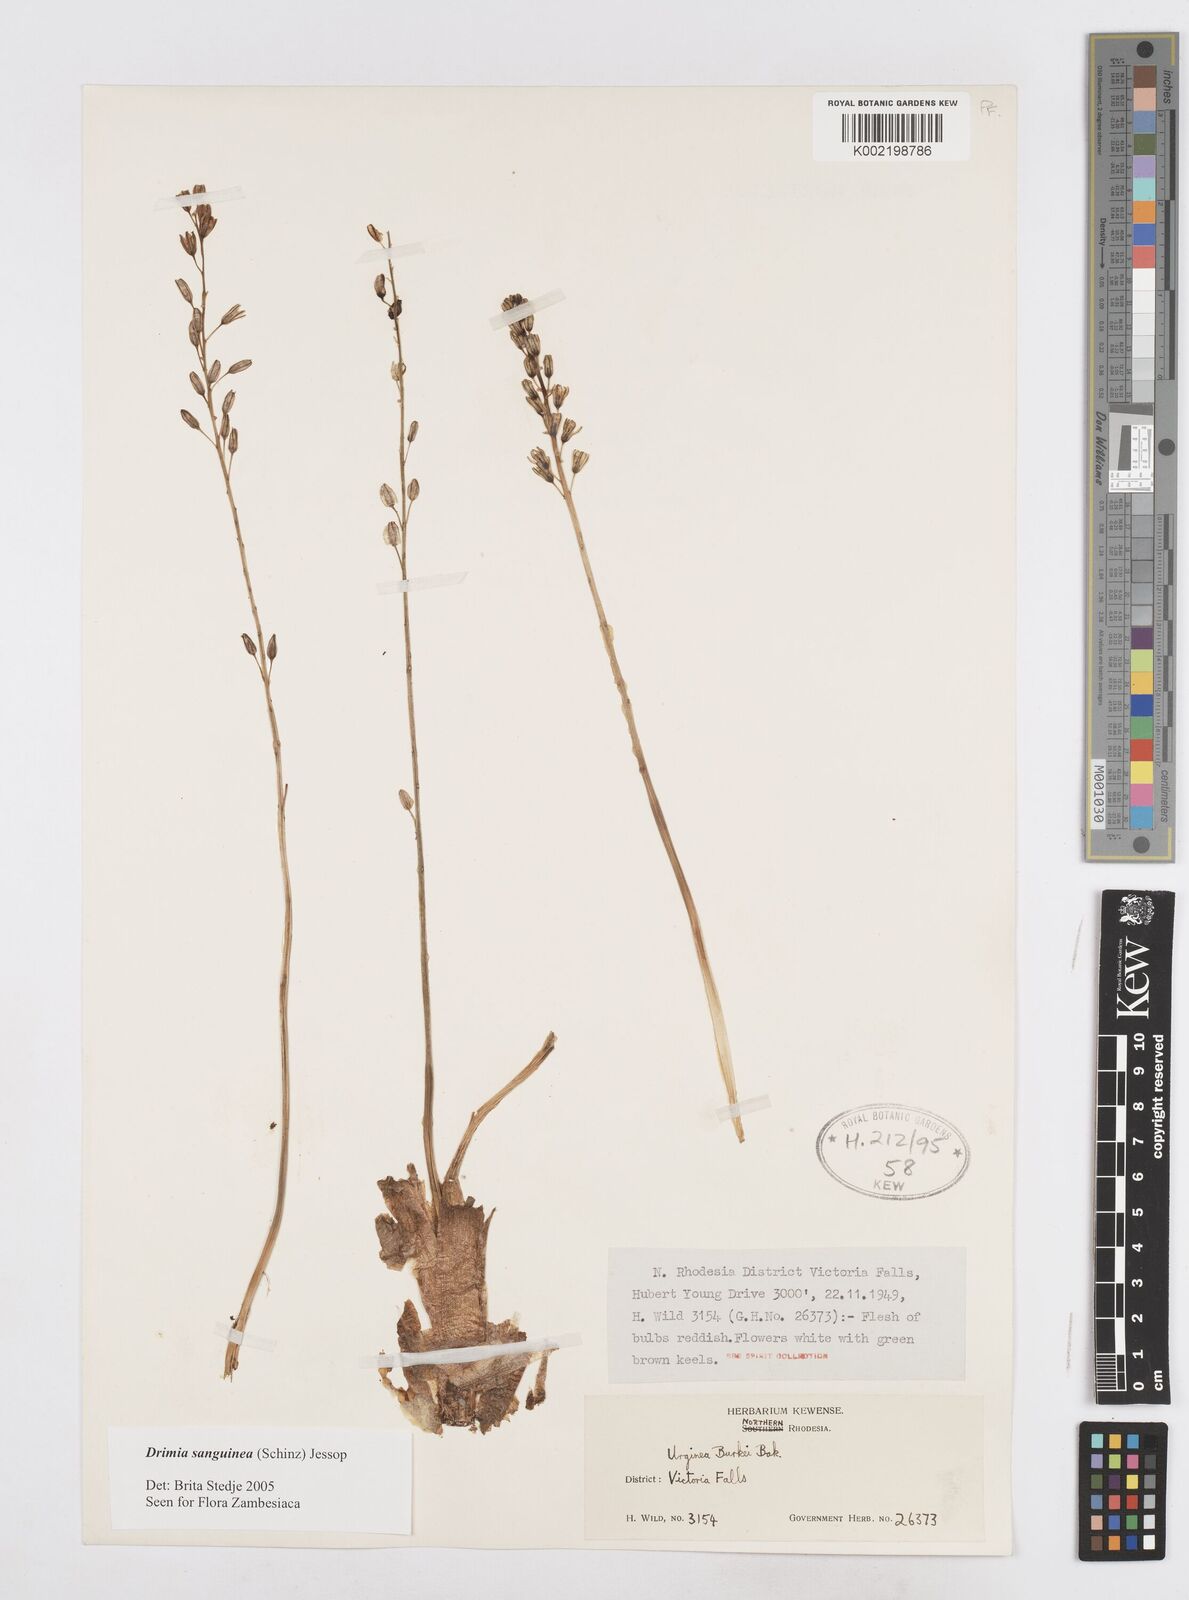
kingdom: Plantae
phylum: Tracheophyta
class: Liliopsida
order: Asparagales
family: Asparagaceae
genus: Drimia
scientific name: Drimia sanguinea
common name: Transvaal slangkop
